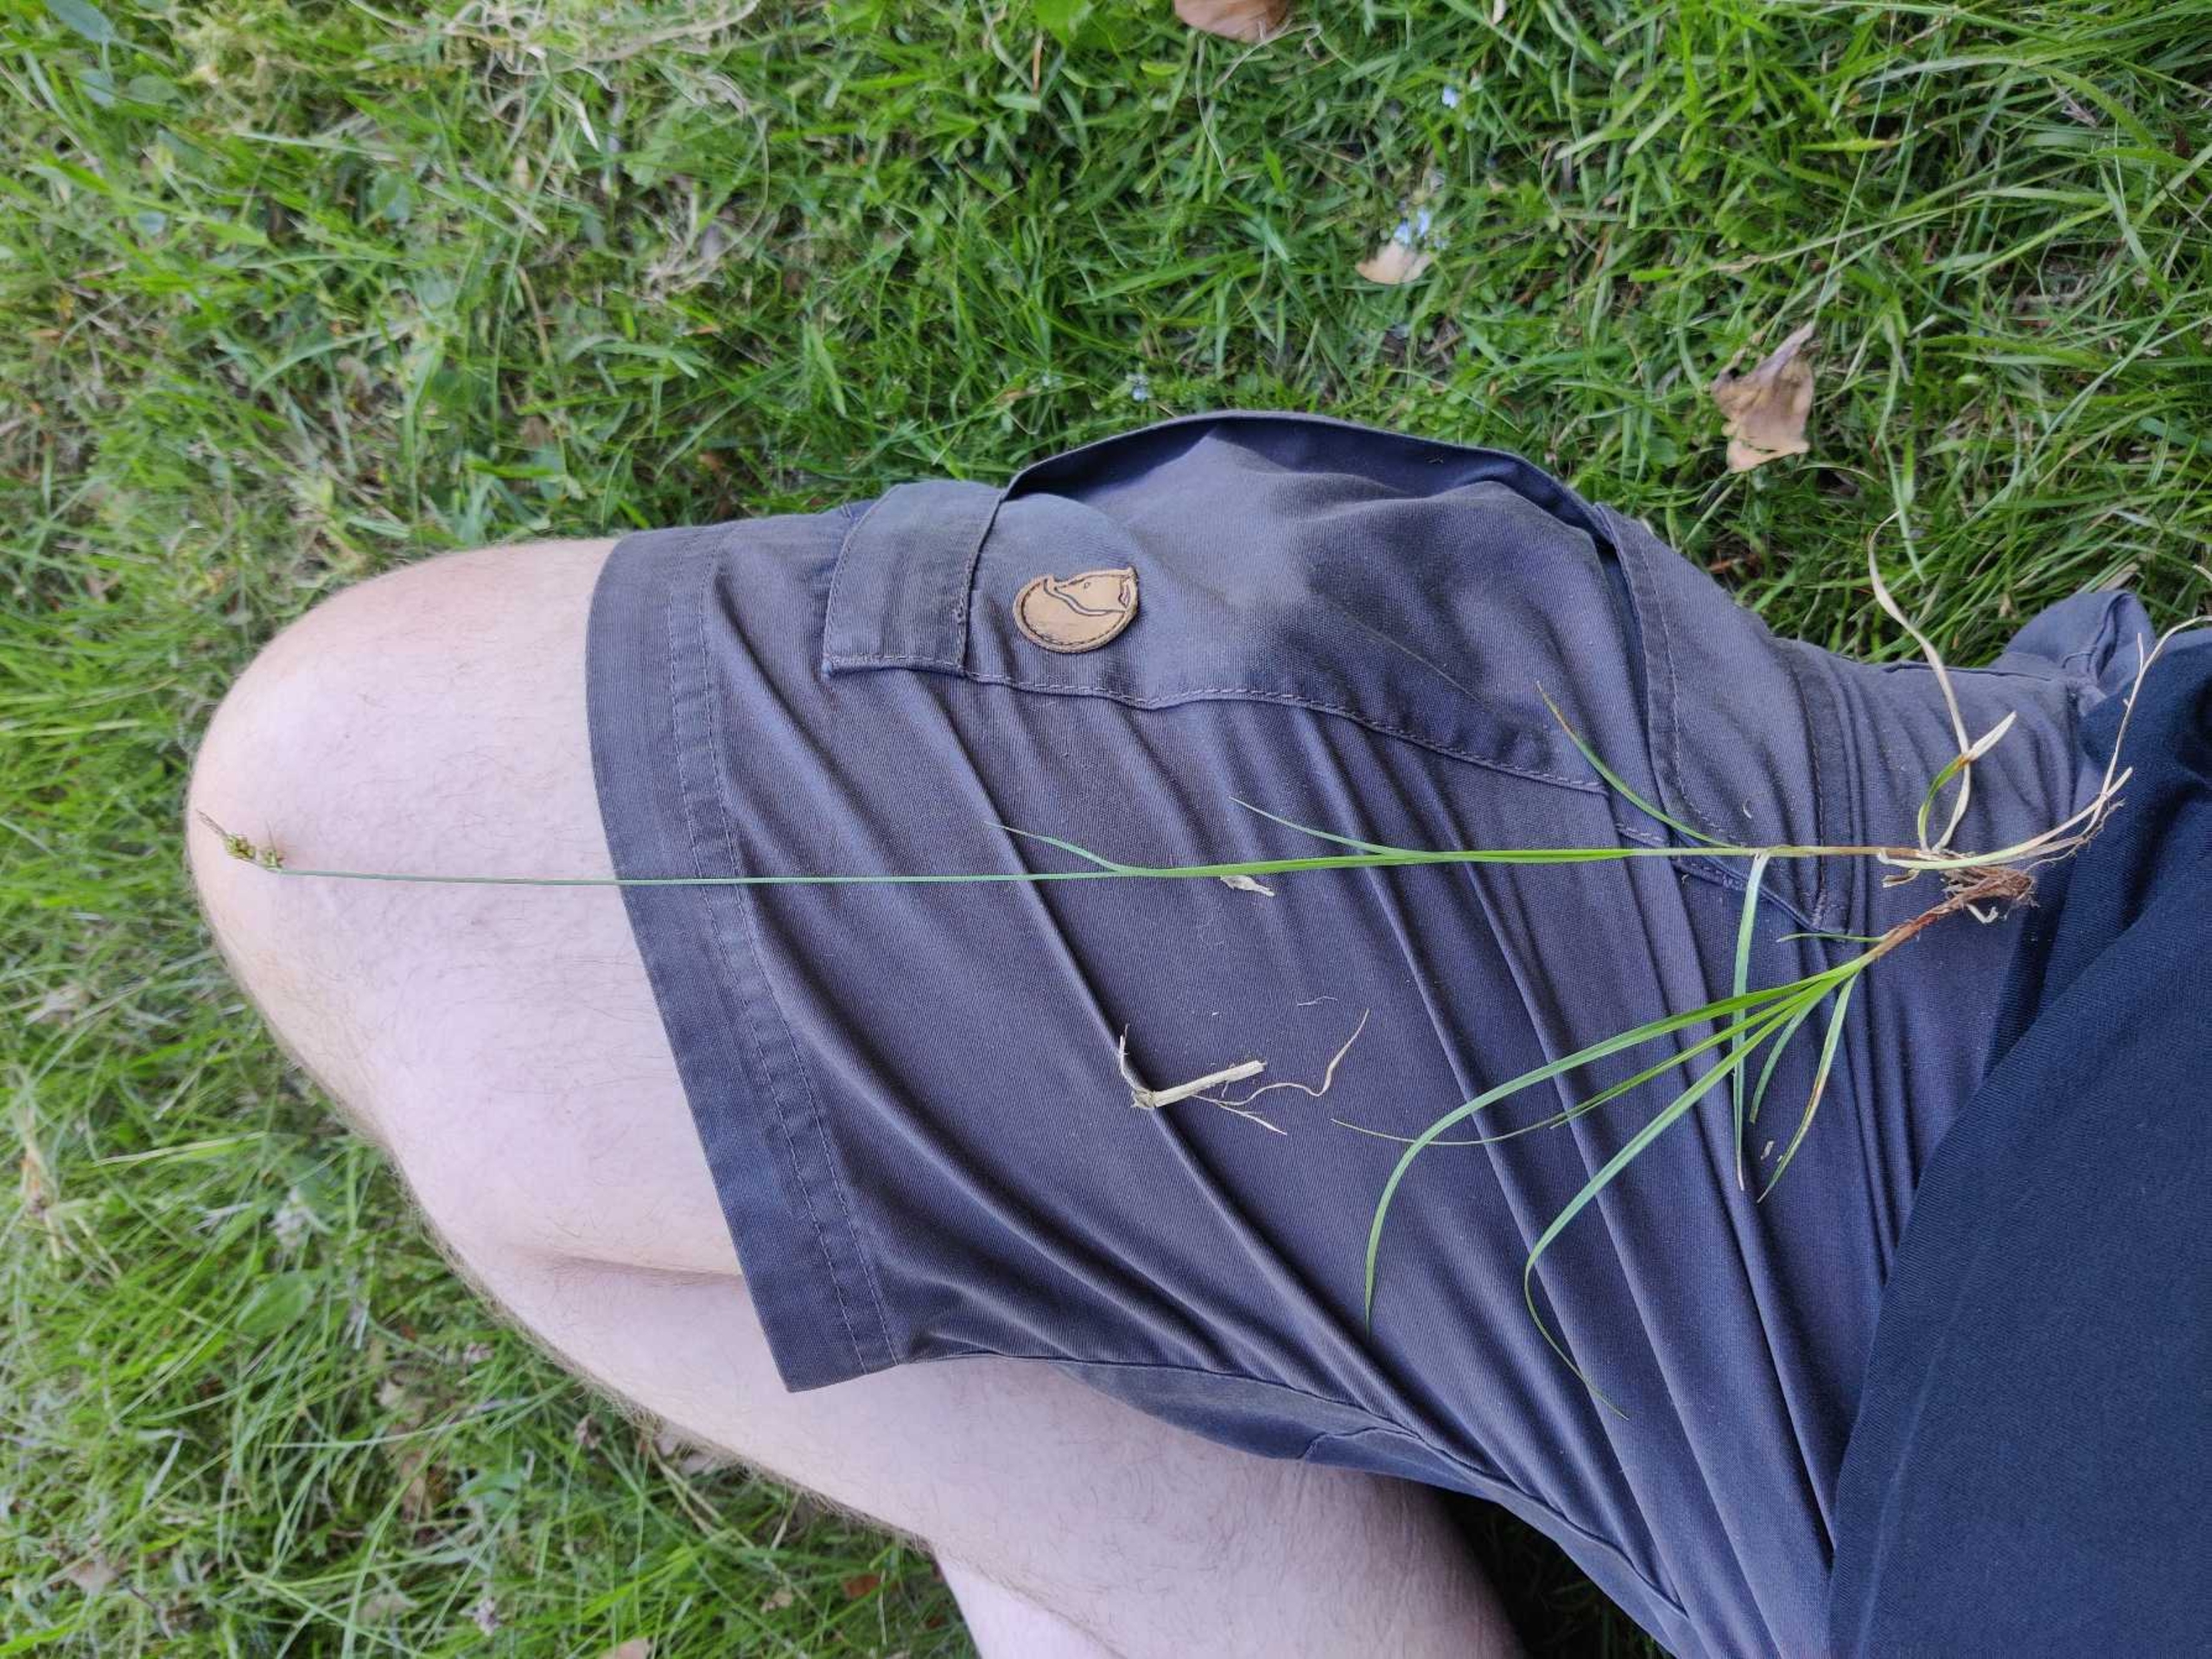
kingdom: Plantae
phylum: Tracheophyta
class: Liliopsida
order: Poales
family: Cyperaceae
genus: Carex
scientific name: Carex pilulifera
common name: Pille-star
